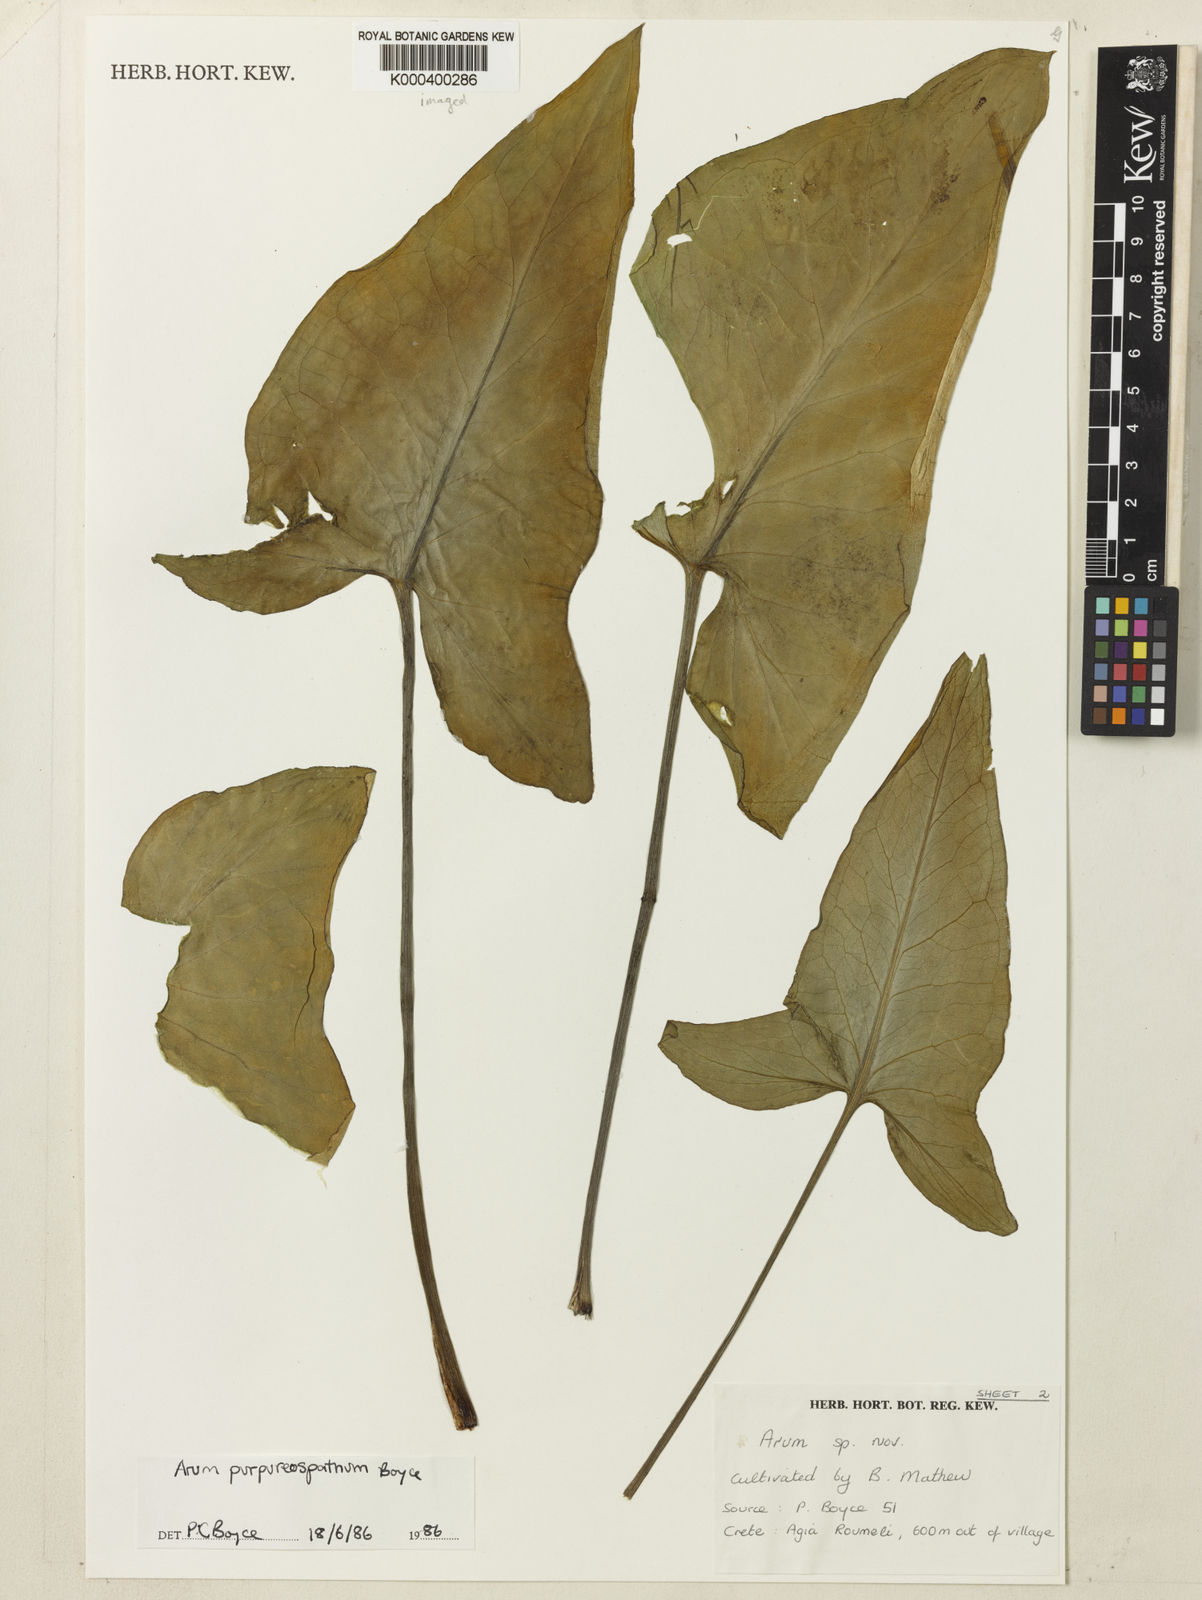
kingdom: Plantae
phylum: Tracheophyta
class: Liliopsida
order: Alismatales
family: Araceae
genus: Arum
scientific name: Arum purpureospathum
